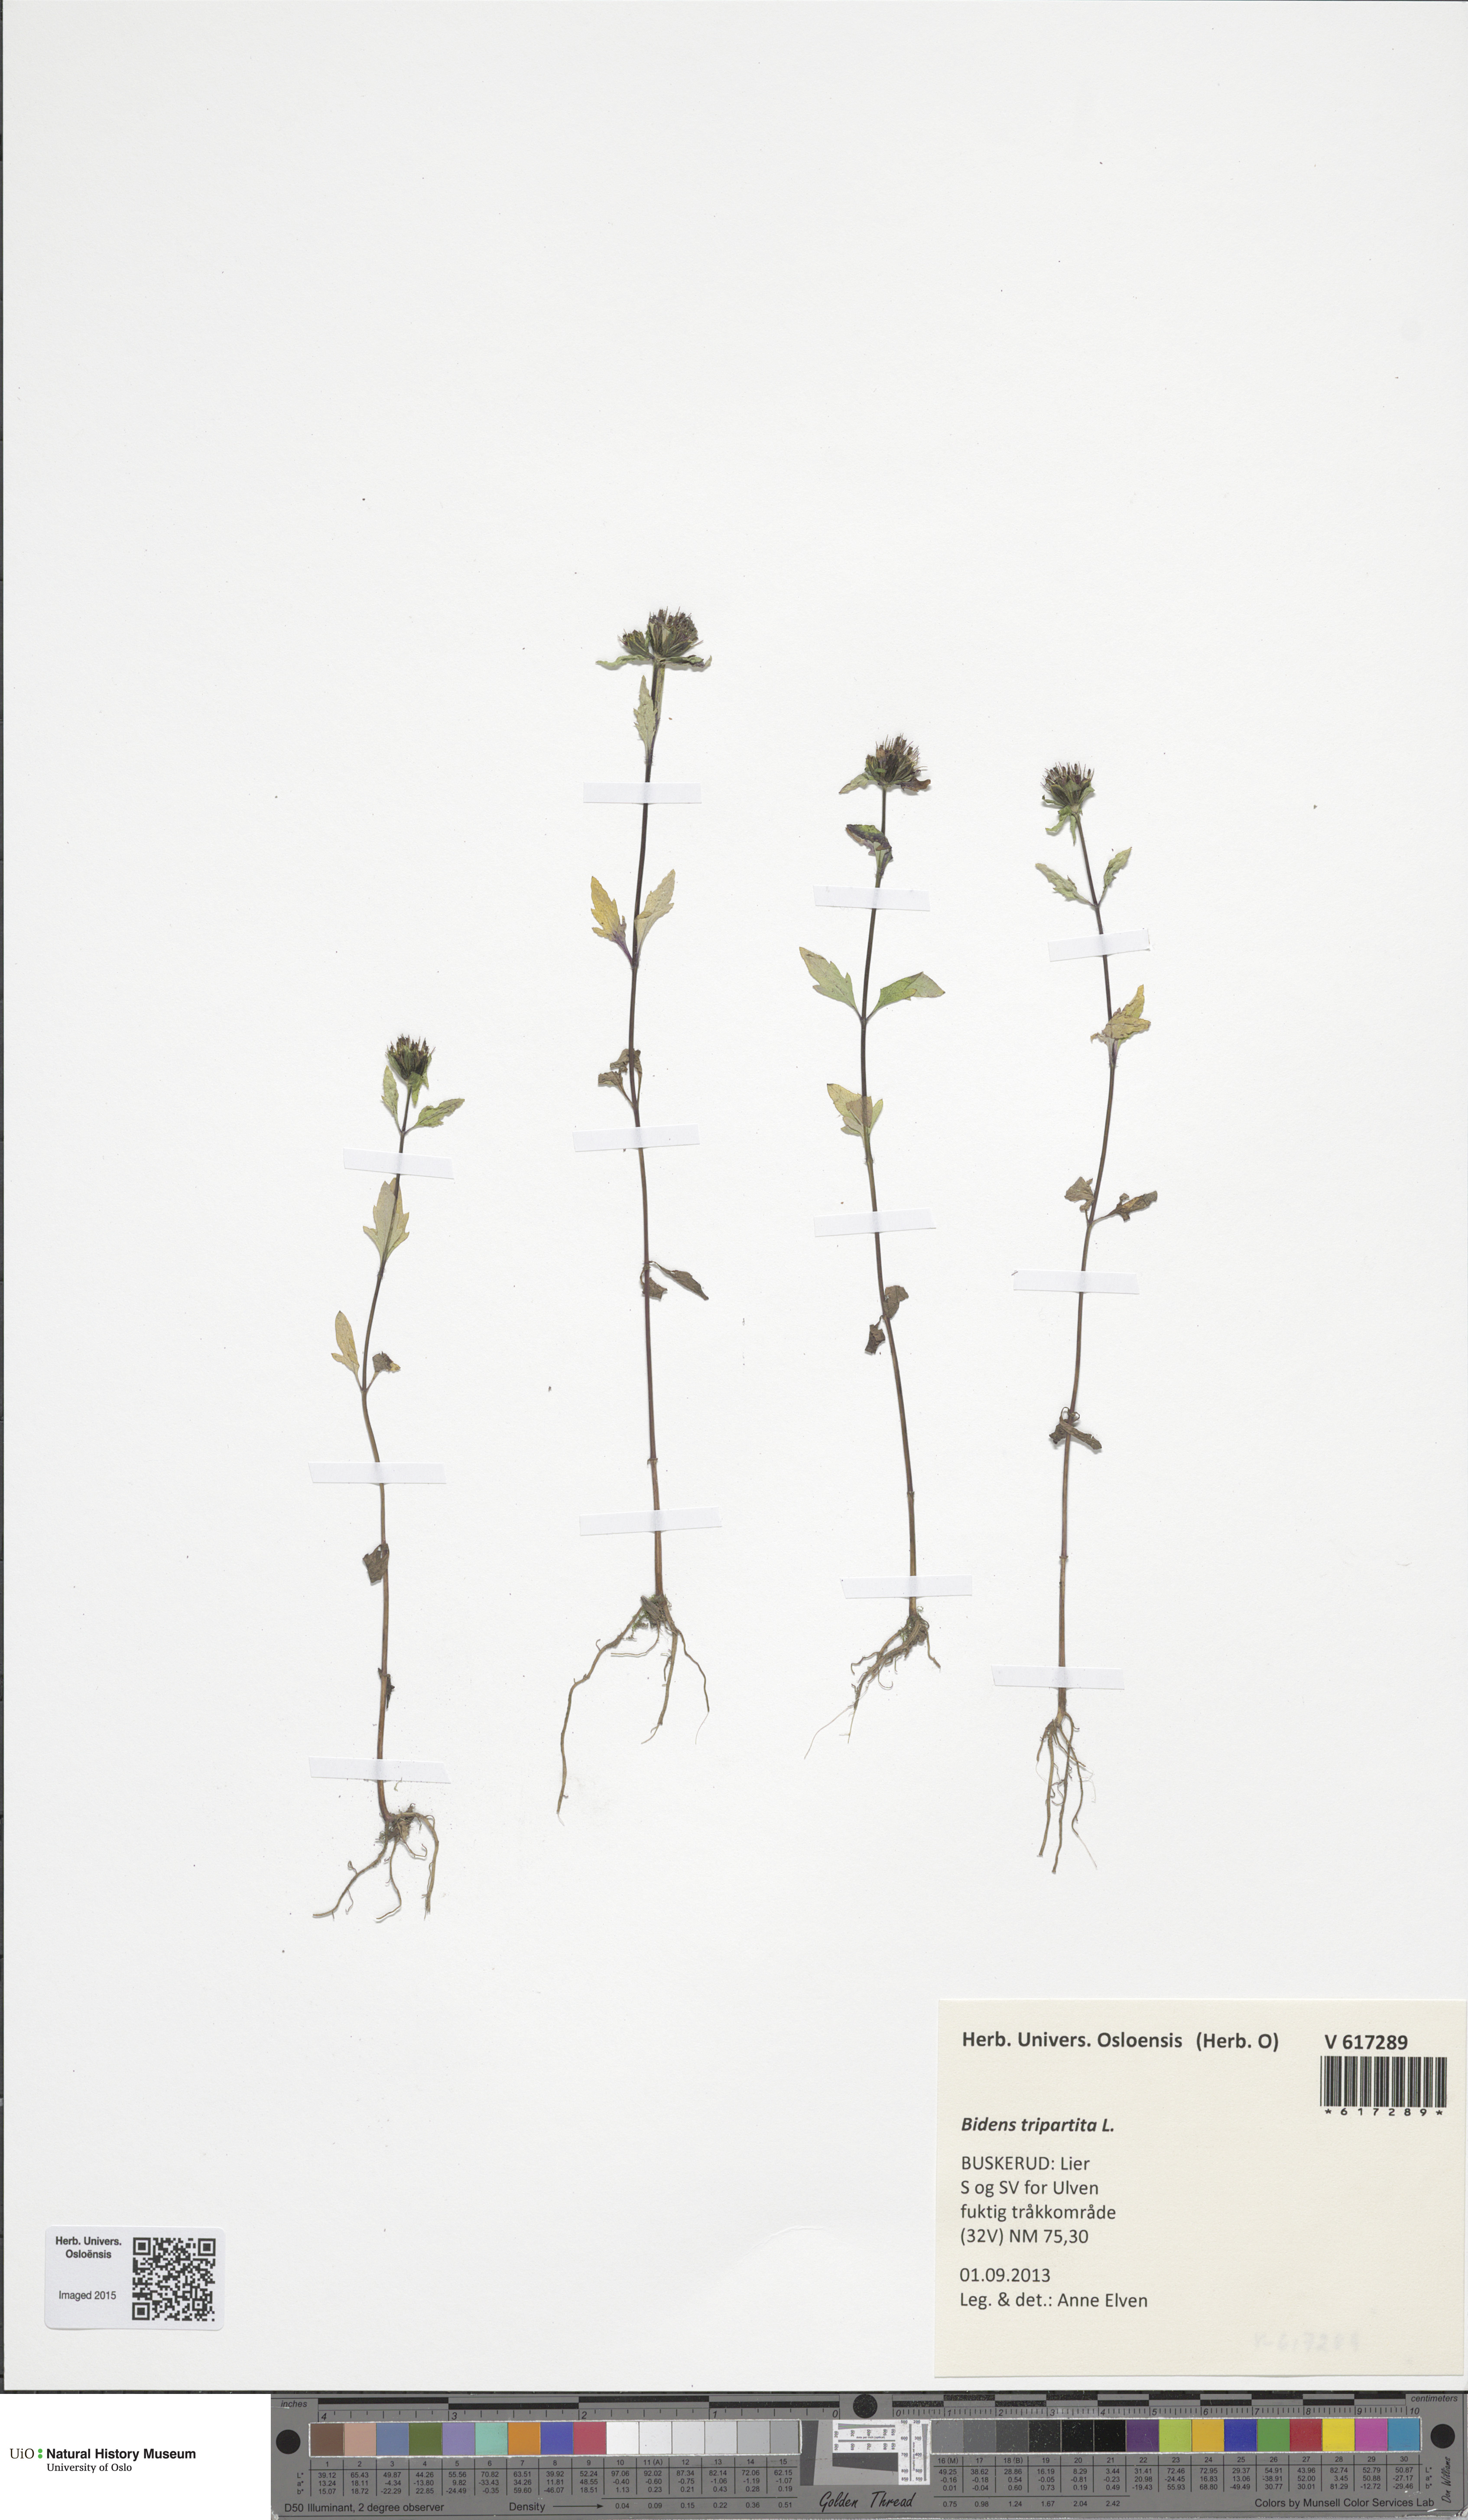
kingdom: Plantae
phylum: Tracheophyta
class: Magnoliopsida
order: Asterales
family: Asteraceae
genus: Bidens
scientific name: Bidens tripartita
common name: Trifid bur-marigold
